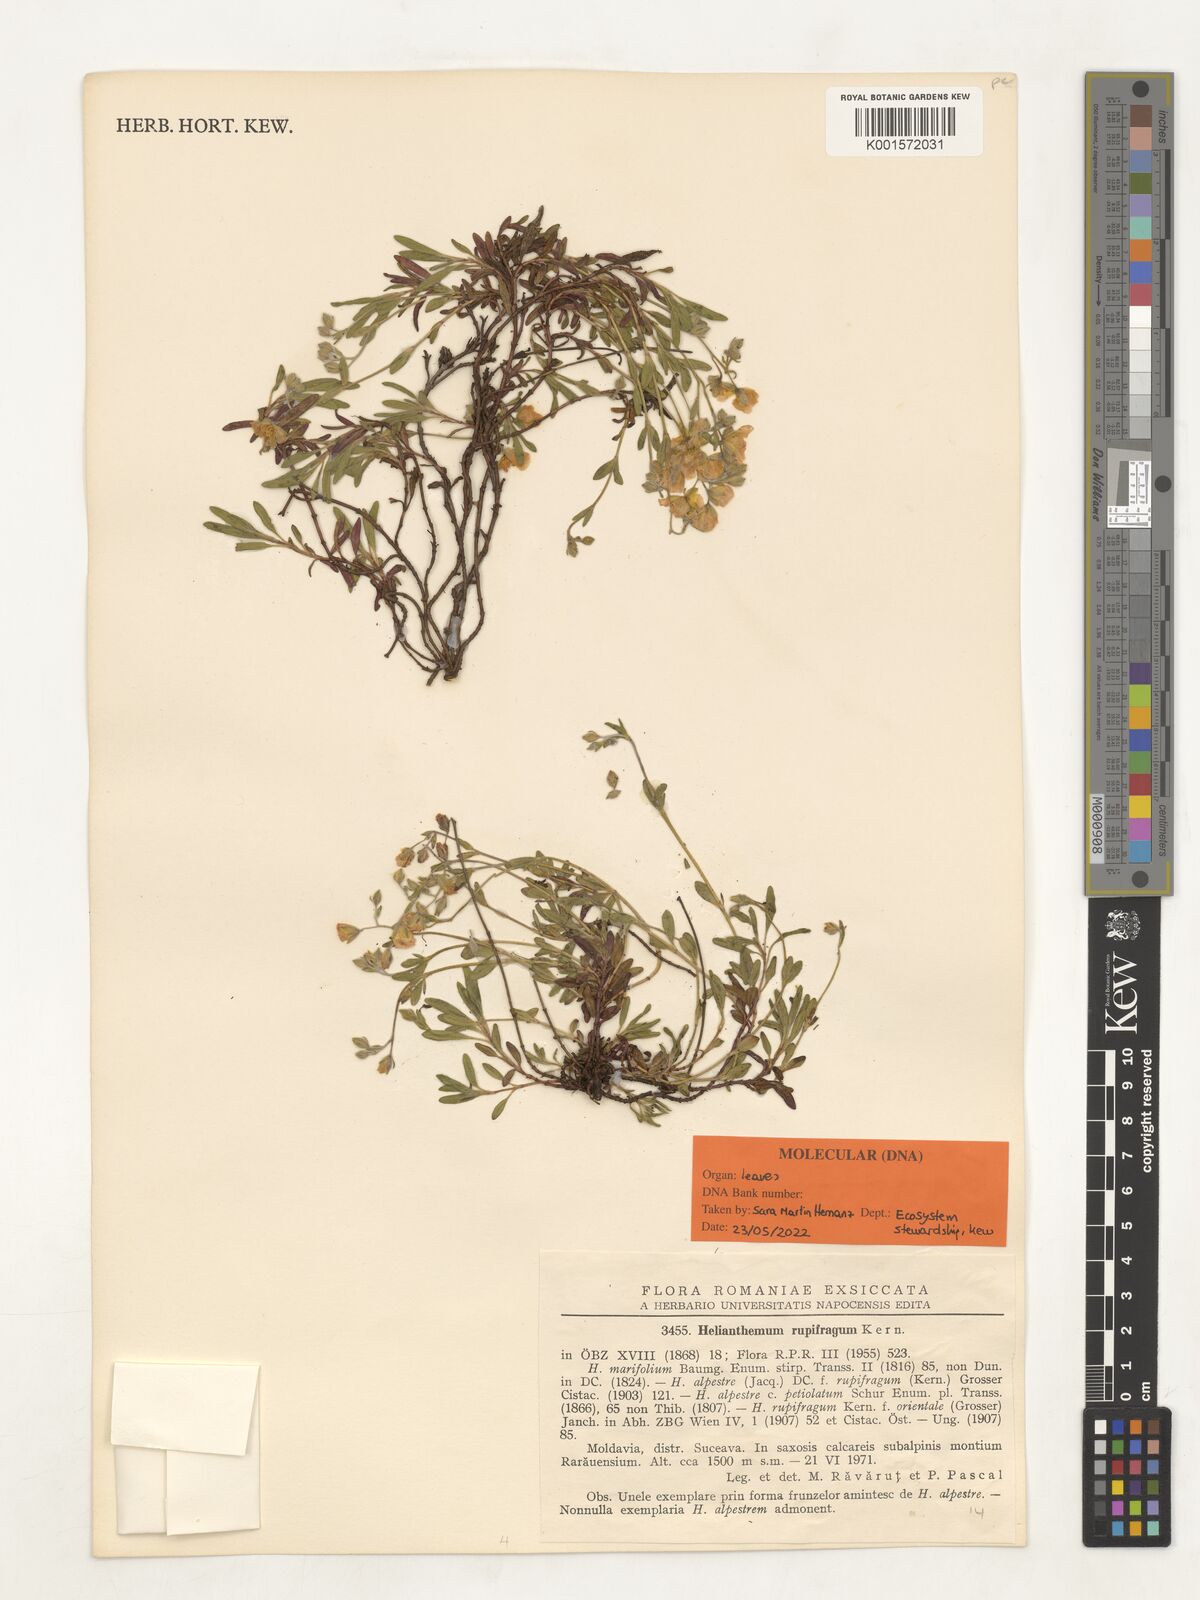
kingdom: Plantae
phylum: Tracheophyta
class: Magnoliopsida
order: Malvales
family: Cistaceae
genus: Helianthemum
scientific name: Helianthemum rupifragum
